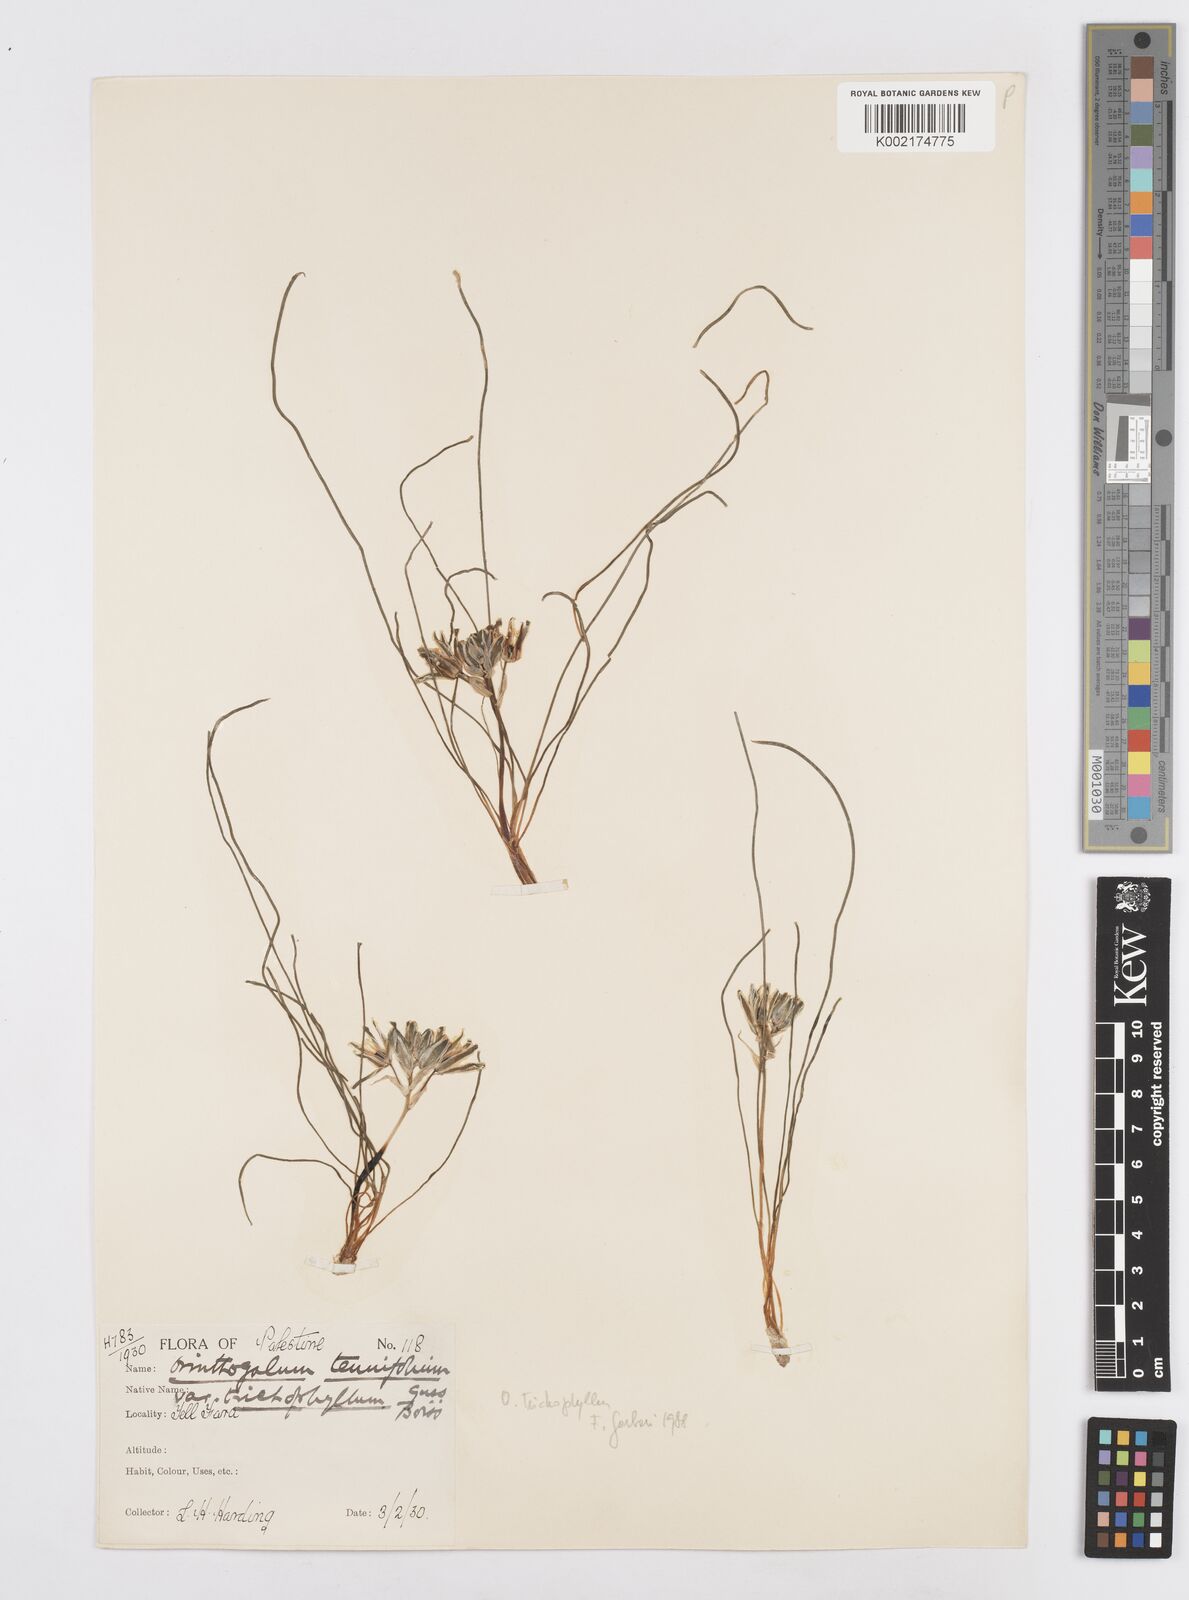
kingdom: Plantae
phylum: Tracheophyta
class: Liliopsida
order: Asparagales
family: Asparagaceae
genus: Ornithogalum
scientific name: Ornithogalum trichophyllum
